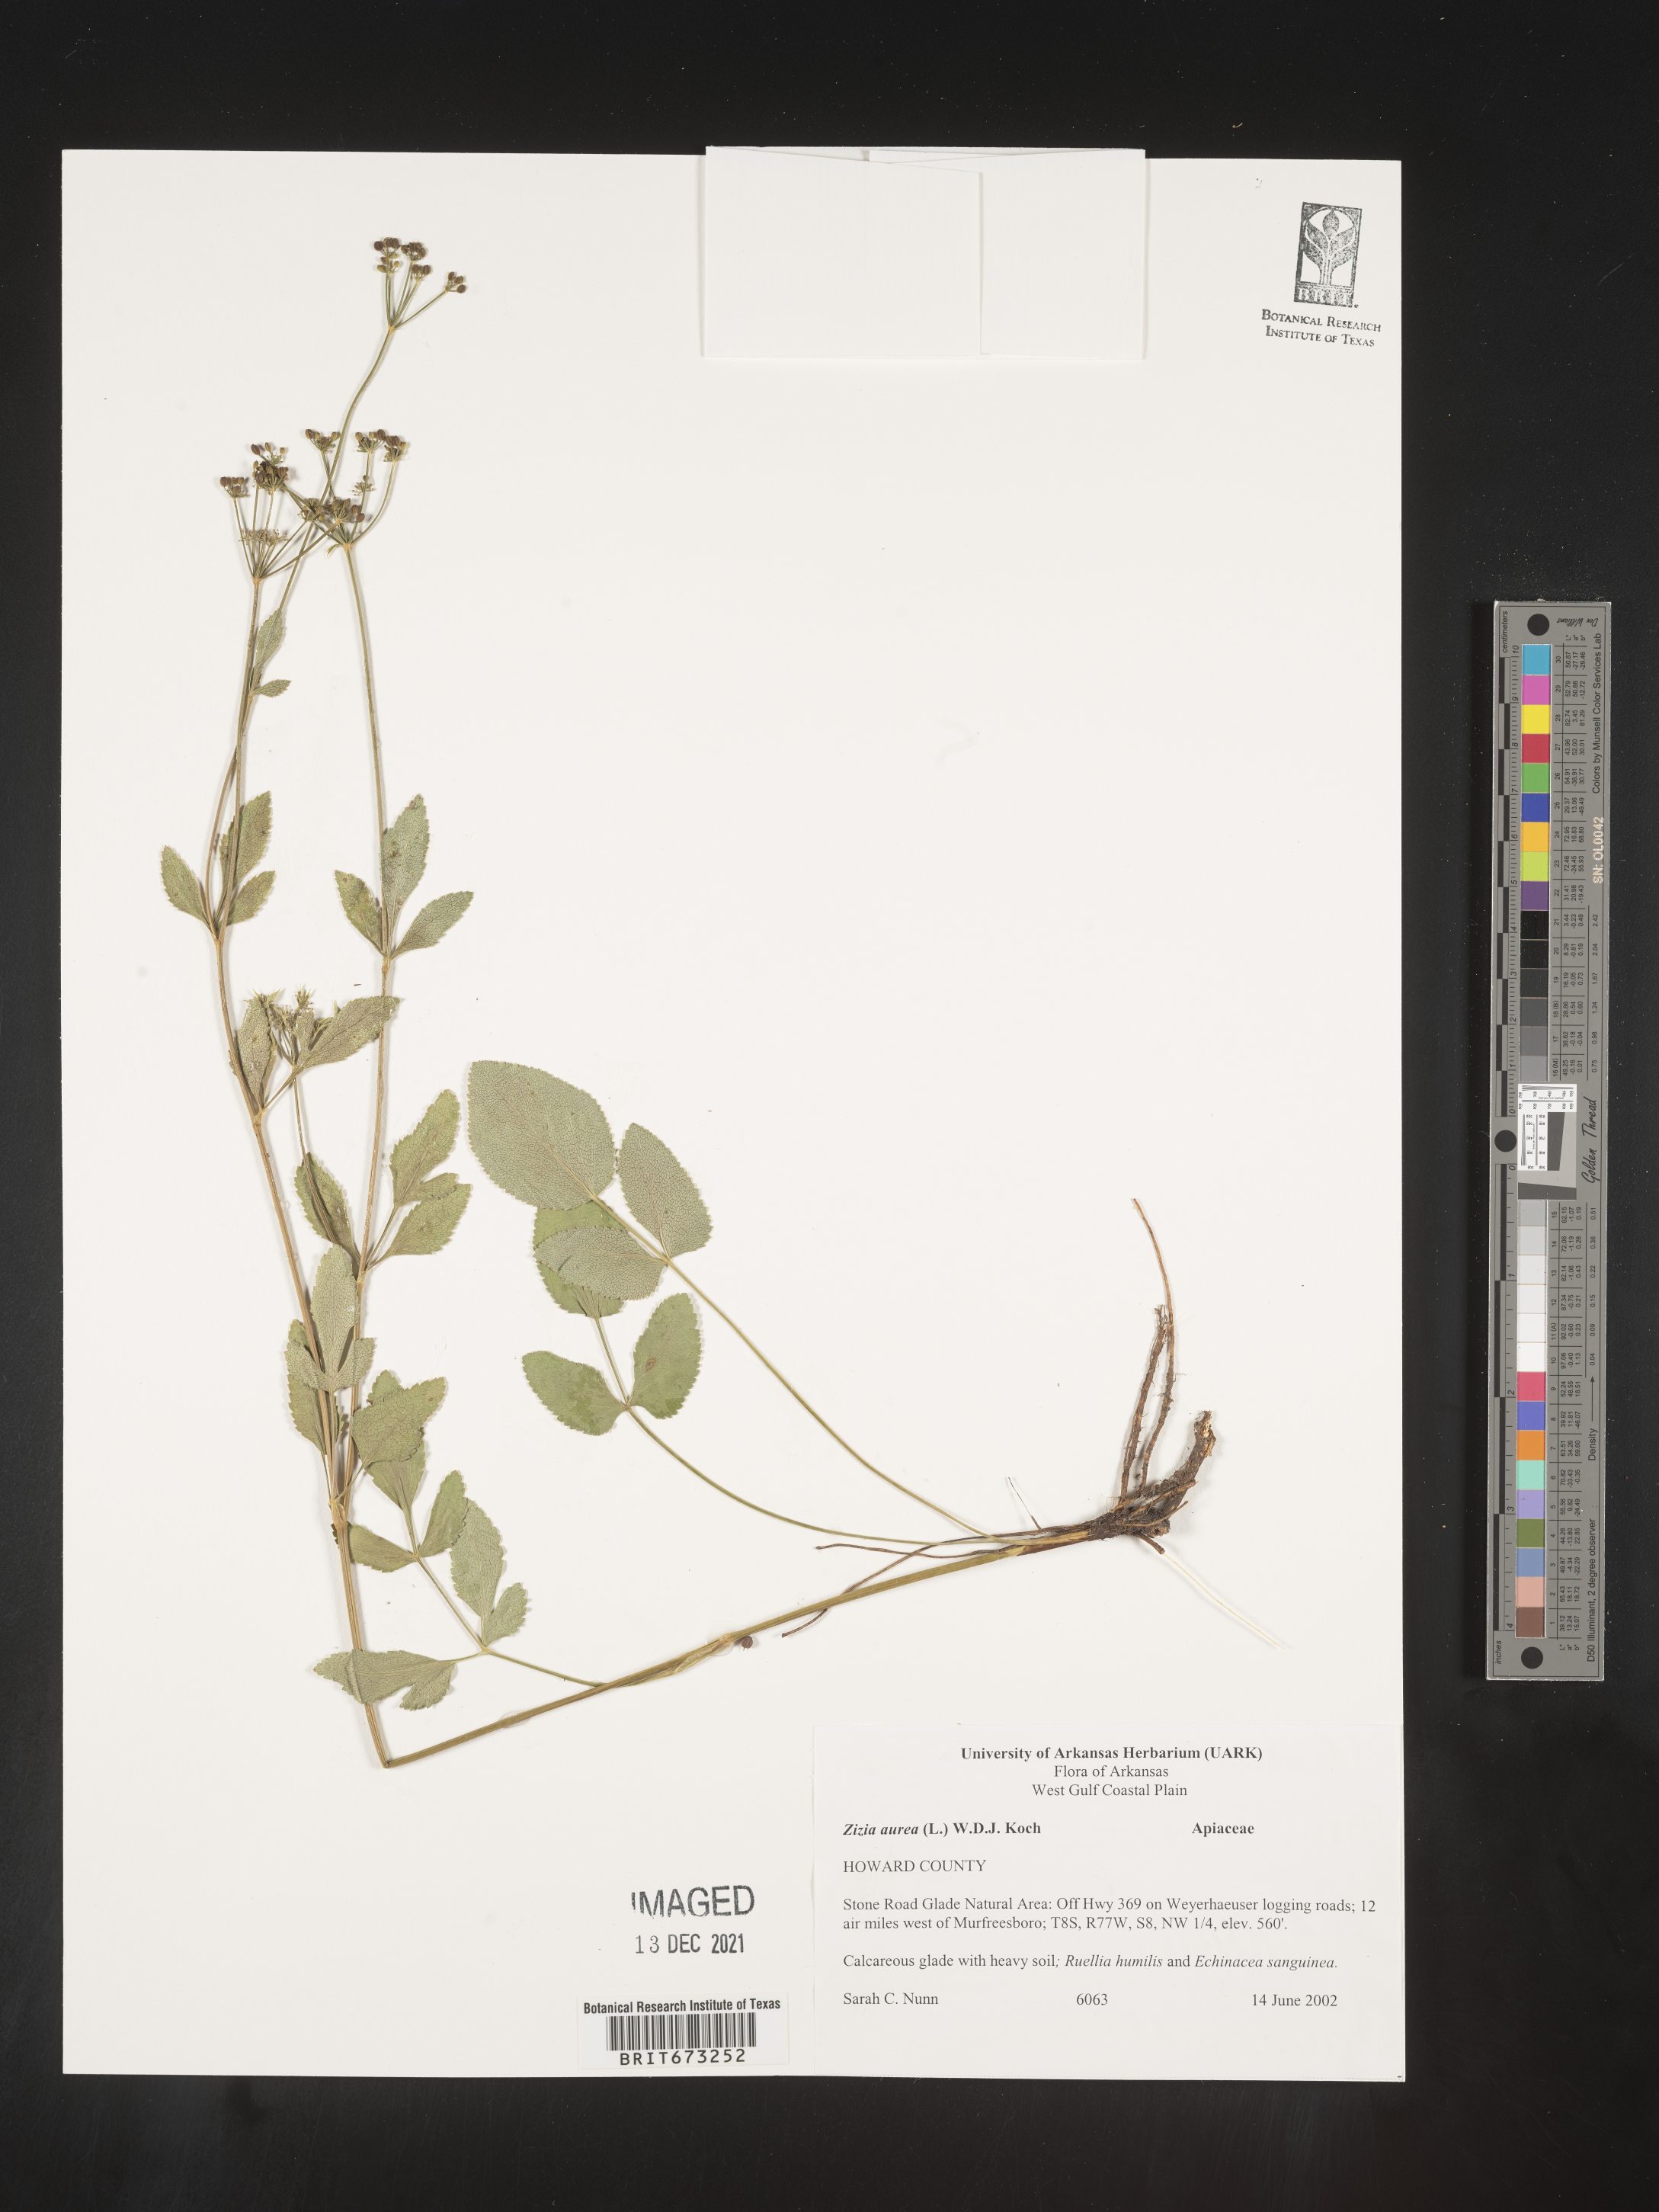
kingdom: Plantae
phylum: Tracheophyta
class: Magnoliopsida
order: Apiales
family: Apiaceae
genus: Zizia
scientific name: Zizia aurea
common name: Golden alexanders
